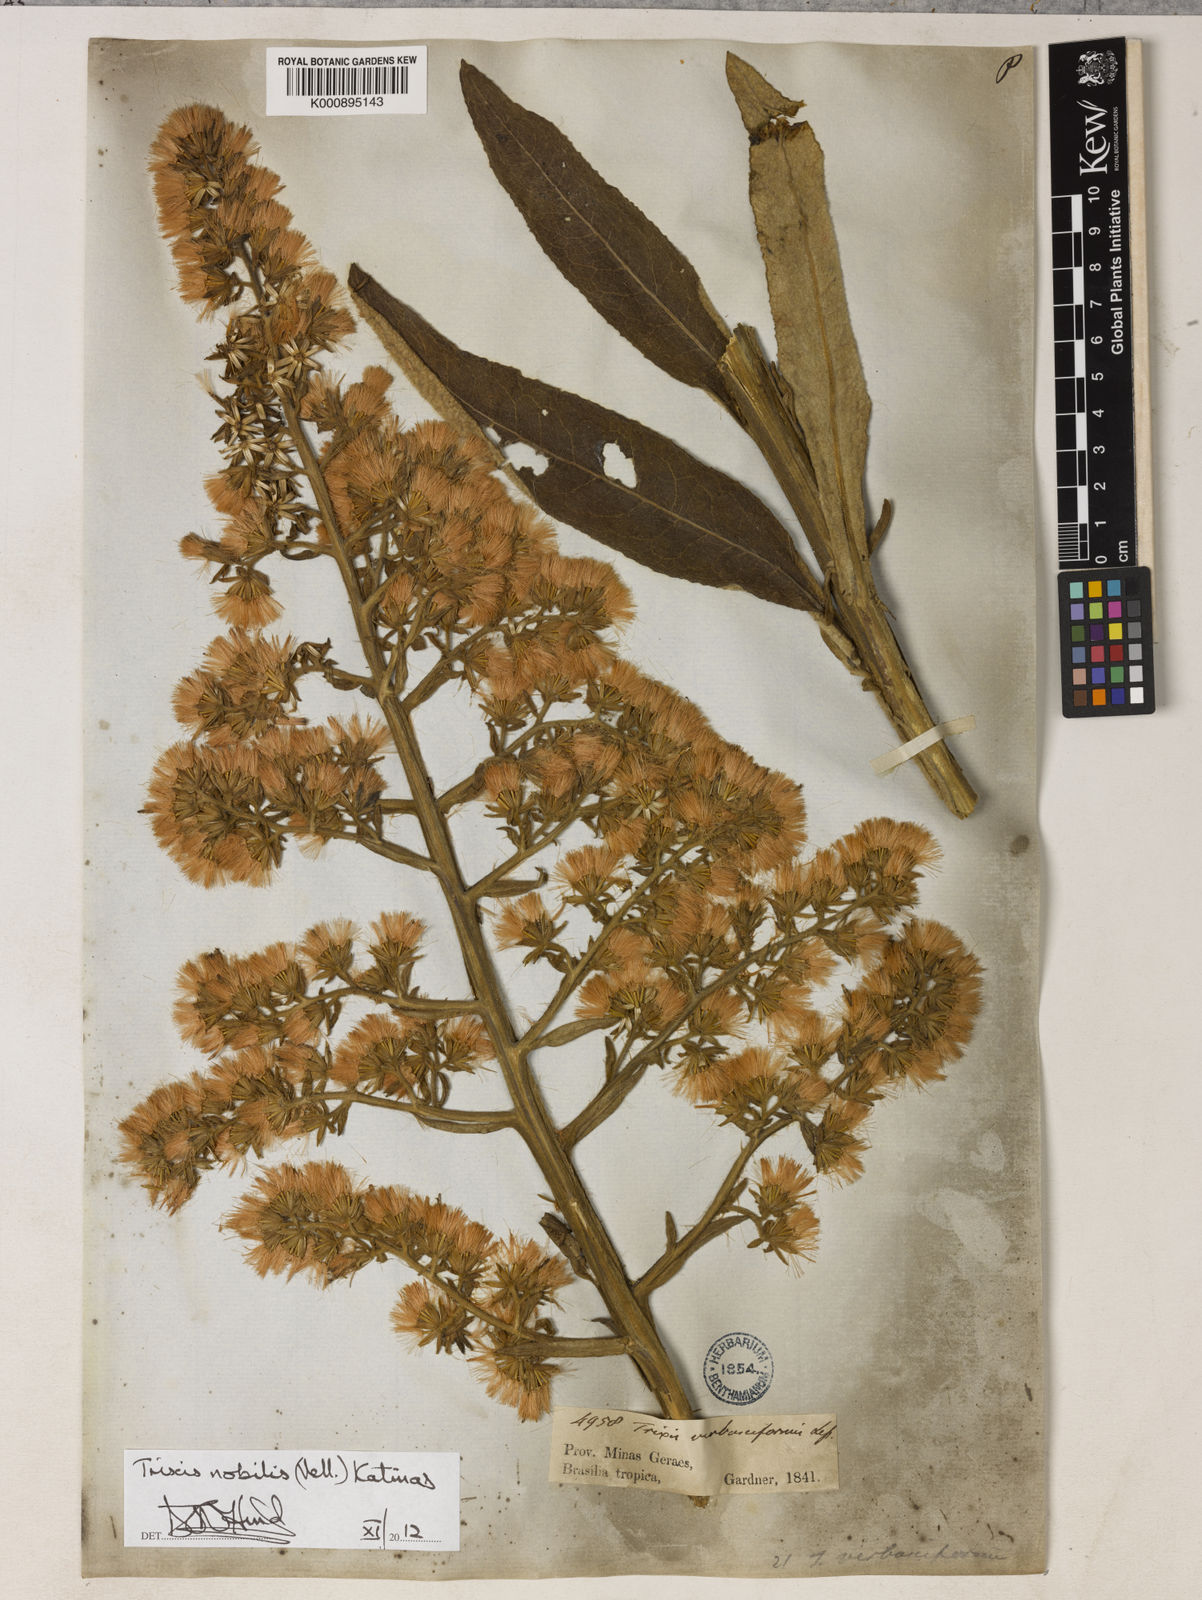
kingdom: Plantae
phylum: Tracheophyta
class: Magnoliopsida
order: Asterales
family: Asteraceae
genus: Trixis
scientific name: Trixis nobilis
